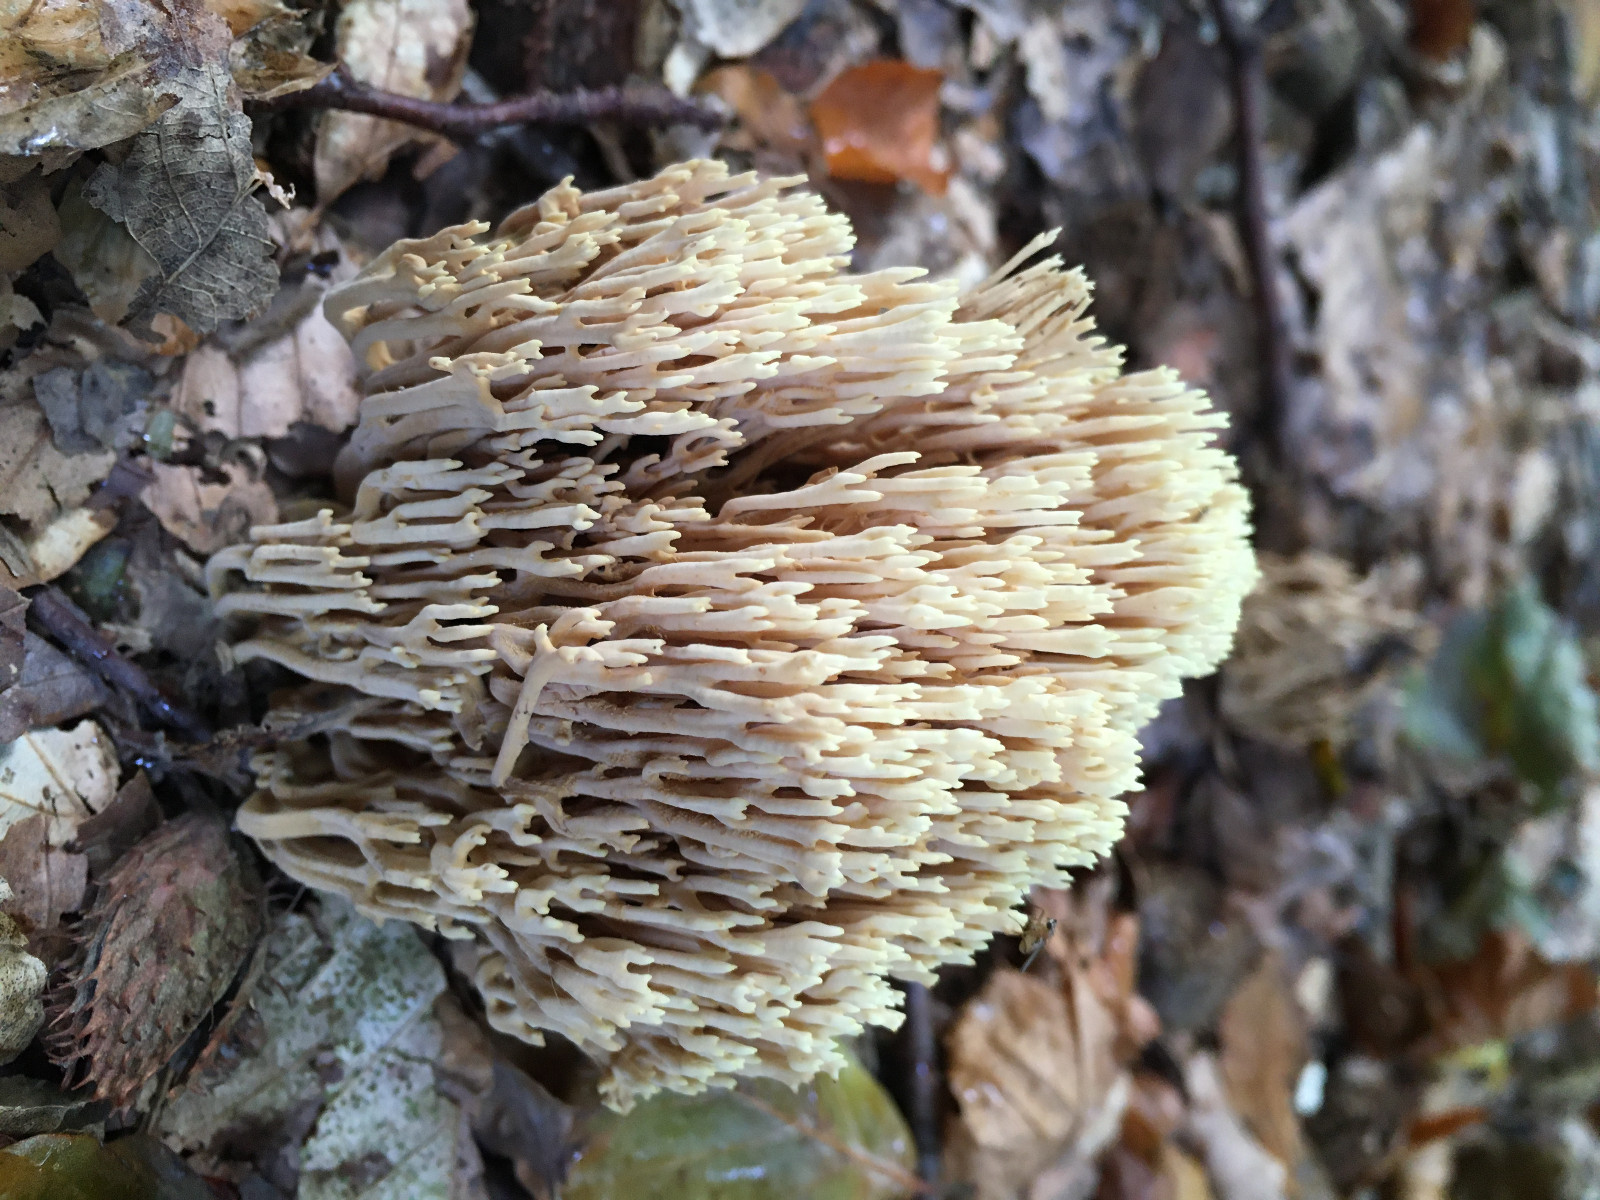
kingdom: Fungi
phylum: Basidiomycota
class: Agaricomycetes
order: Gomphales
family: Gomphaceae
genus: Ramaria
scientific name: Ramaria stricta
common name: rank koralsvamp
